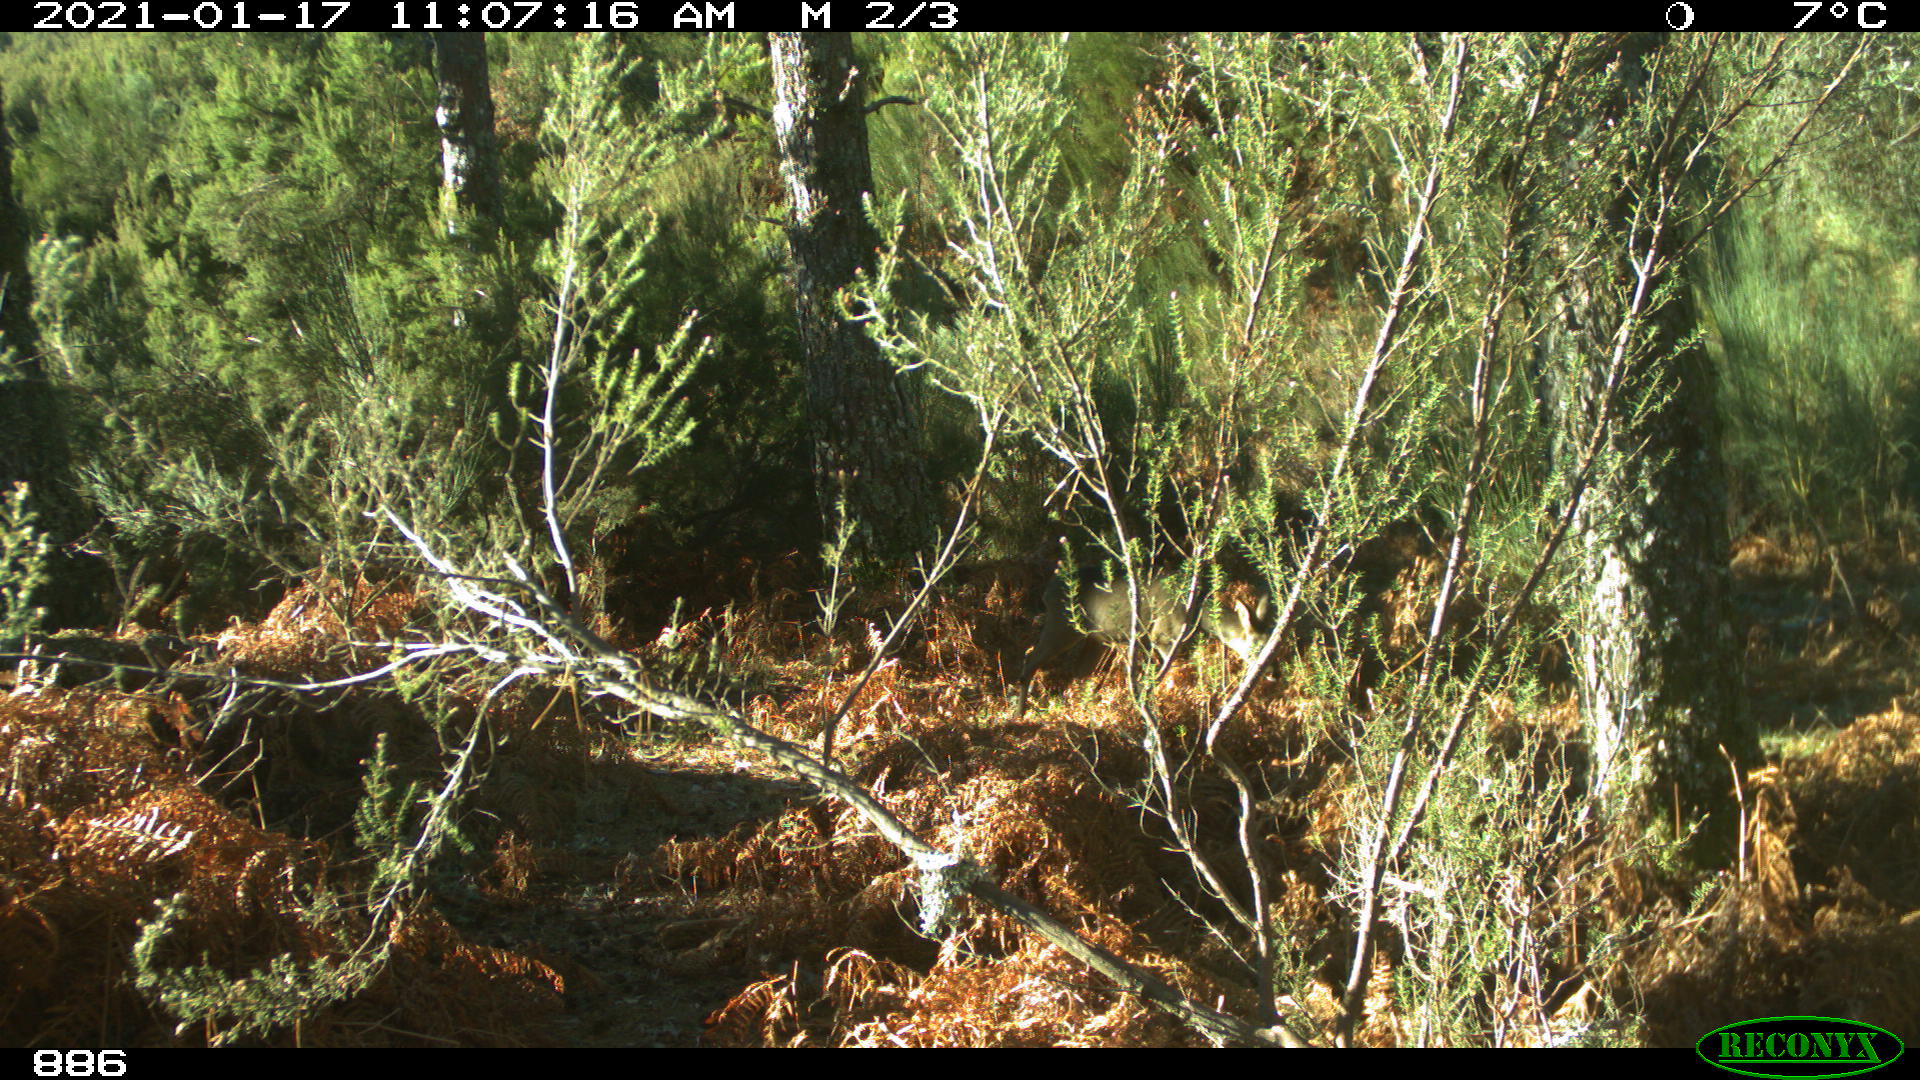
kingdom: Animalia
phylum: Chordata
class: Mammalia
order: Artiodactyla
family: Cervidae
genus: Capreolus
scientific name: Capreolus capreolus
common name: Western roe deer
